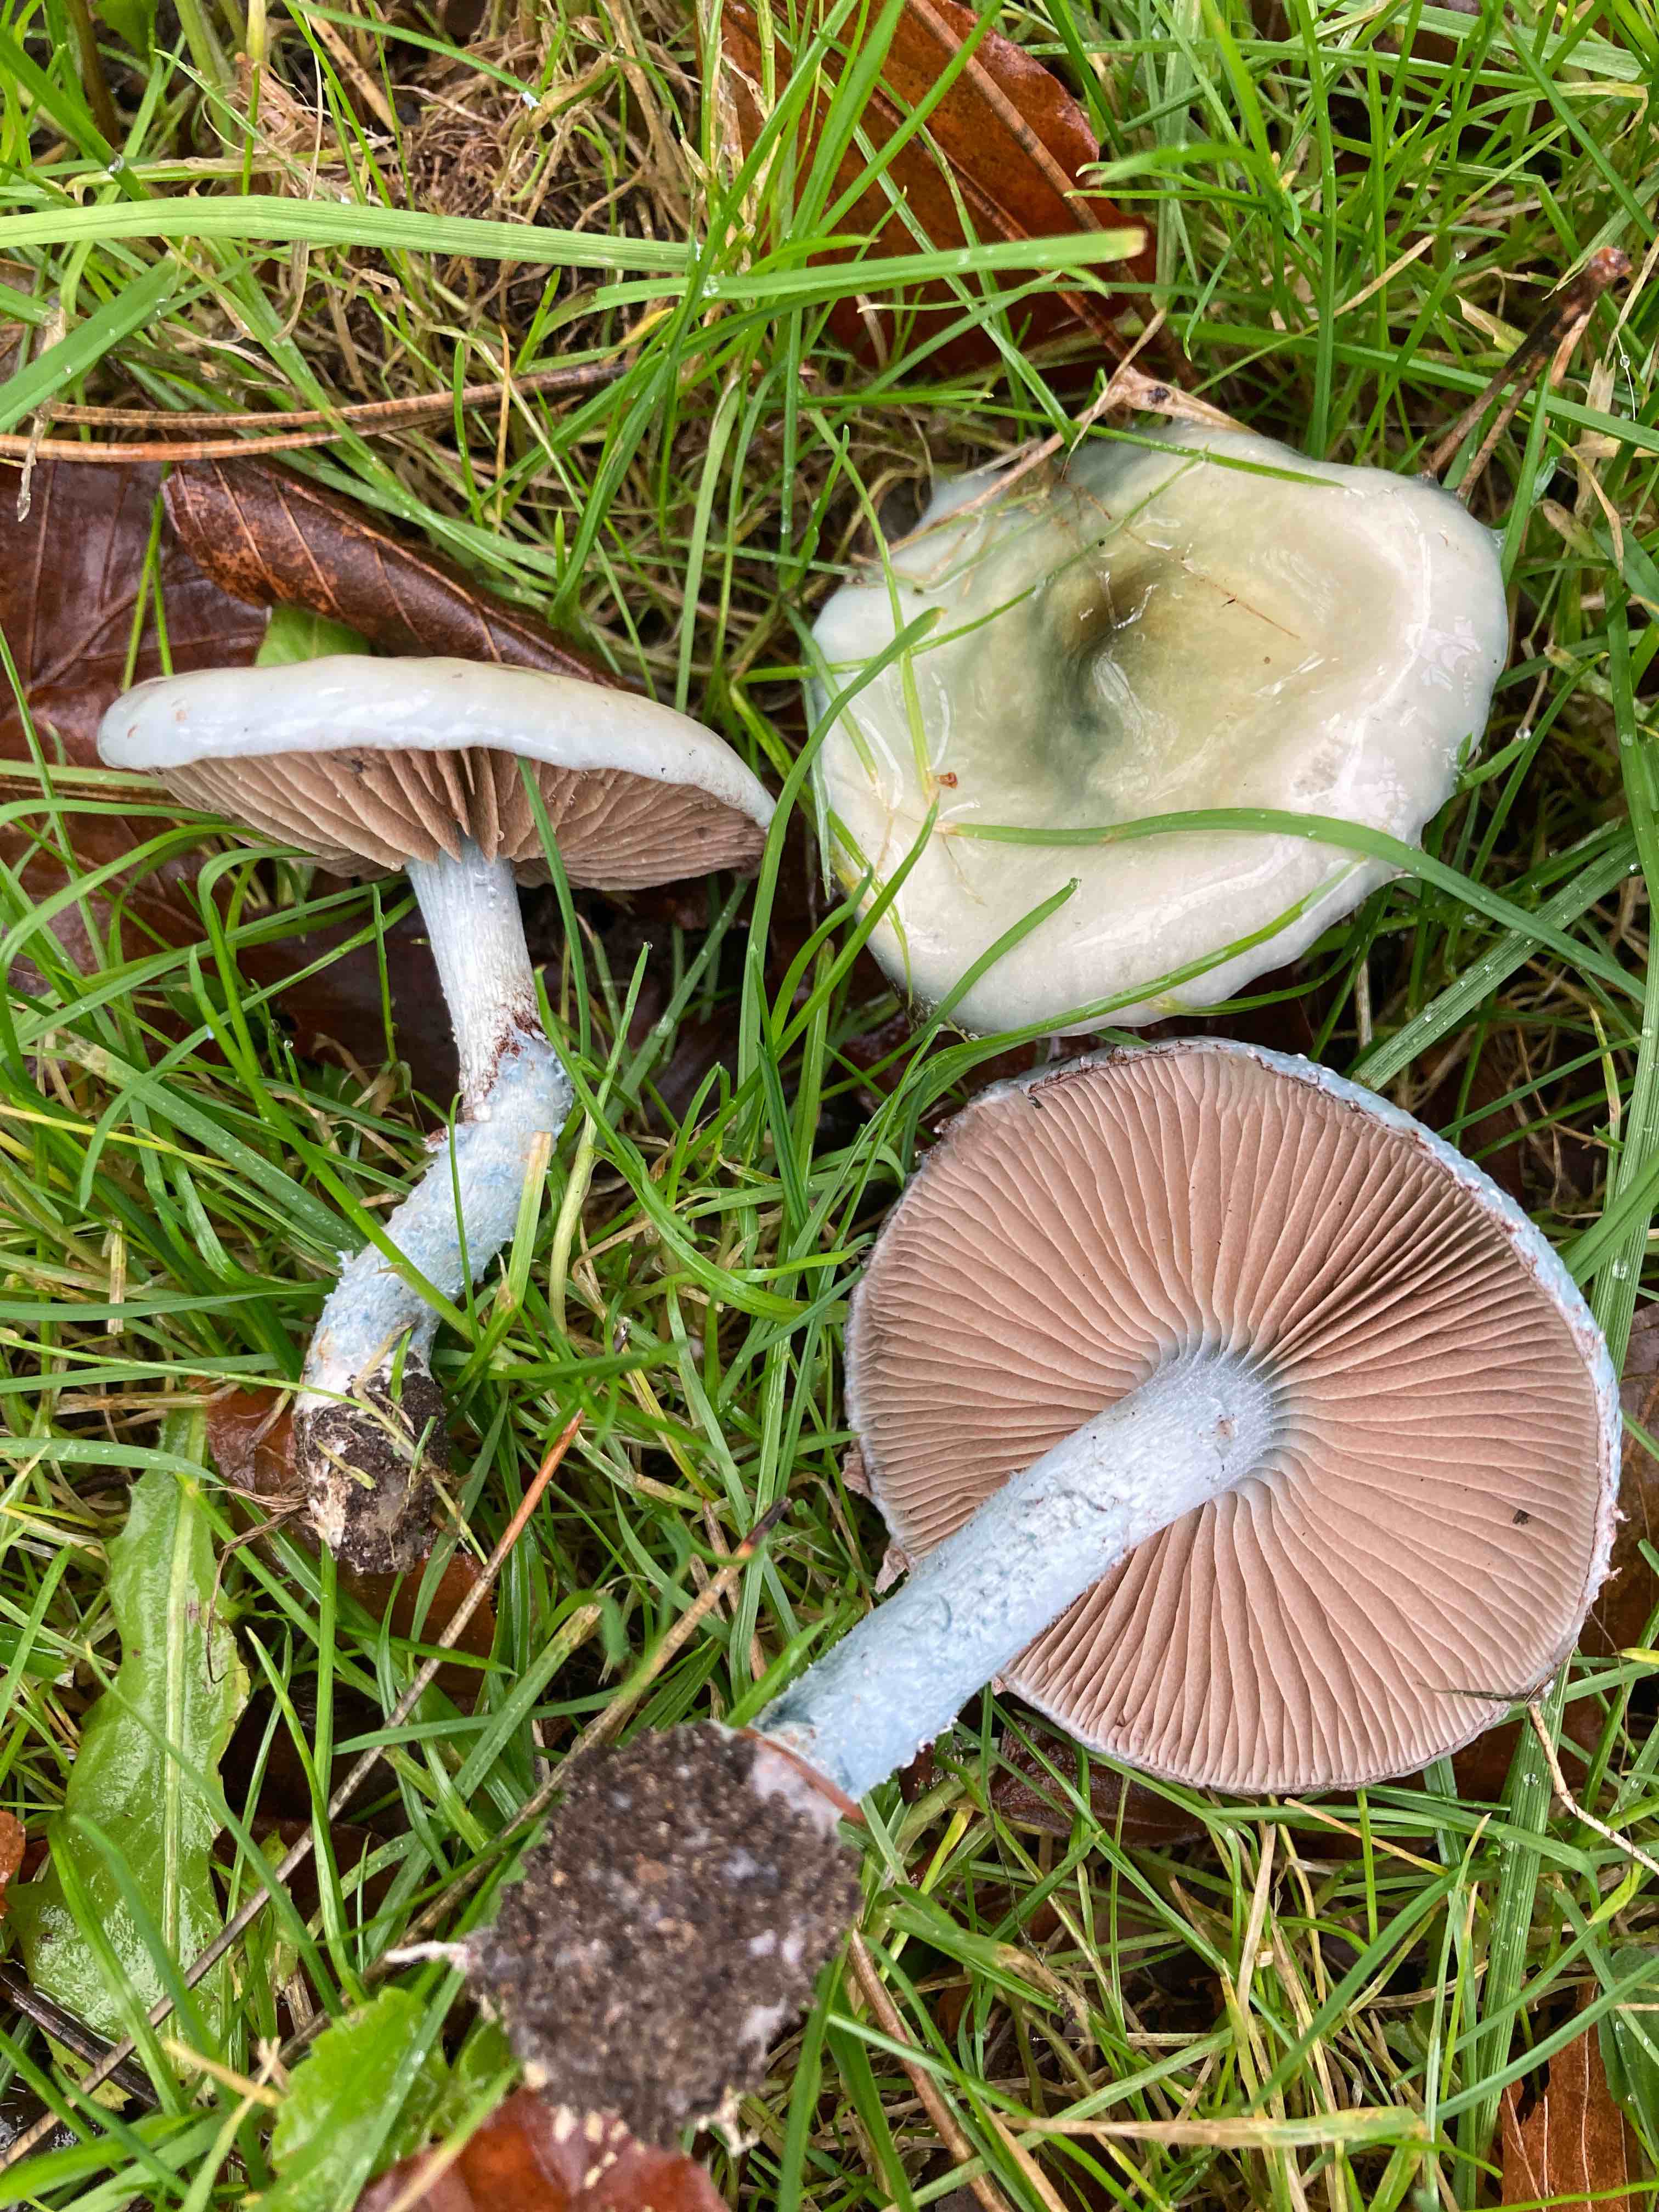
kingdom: Fungi
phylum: Basidiomycota
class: Agaricomycetes
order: Agaricales
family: Strophariaceae
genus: Stropharia
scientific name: Stropharia cyanea
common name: blågrøn bredblad
